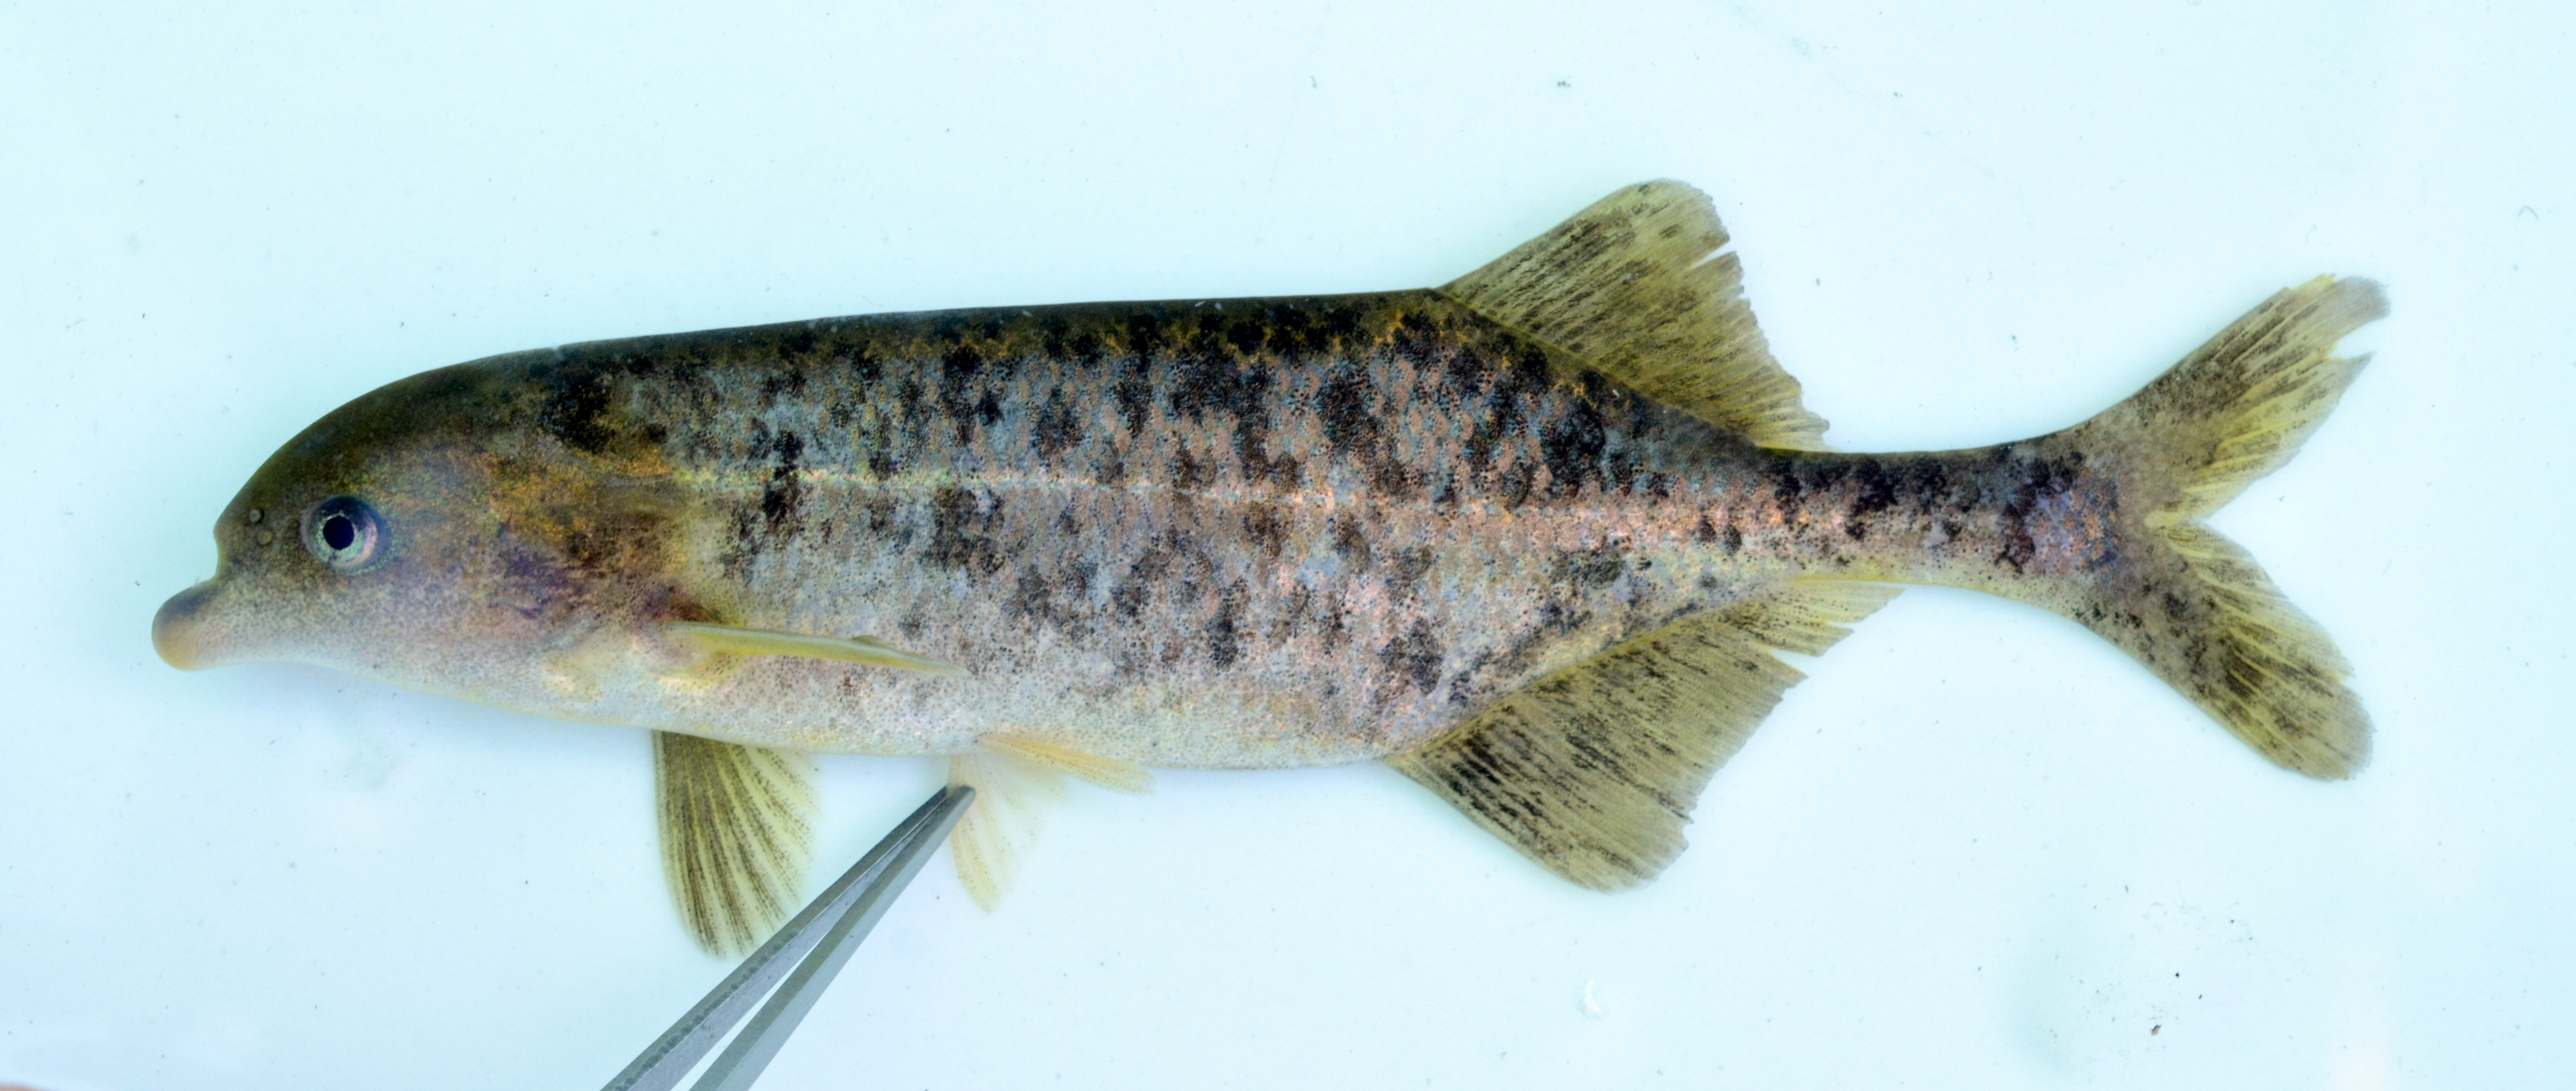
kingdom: Animalia
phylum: Chordata
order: Osteoglossiformes
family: Mormyridae
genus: Marcusenius
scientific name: Marcusenius altisambesi
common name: Bulldog
